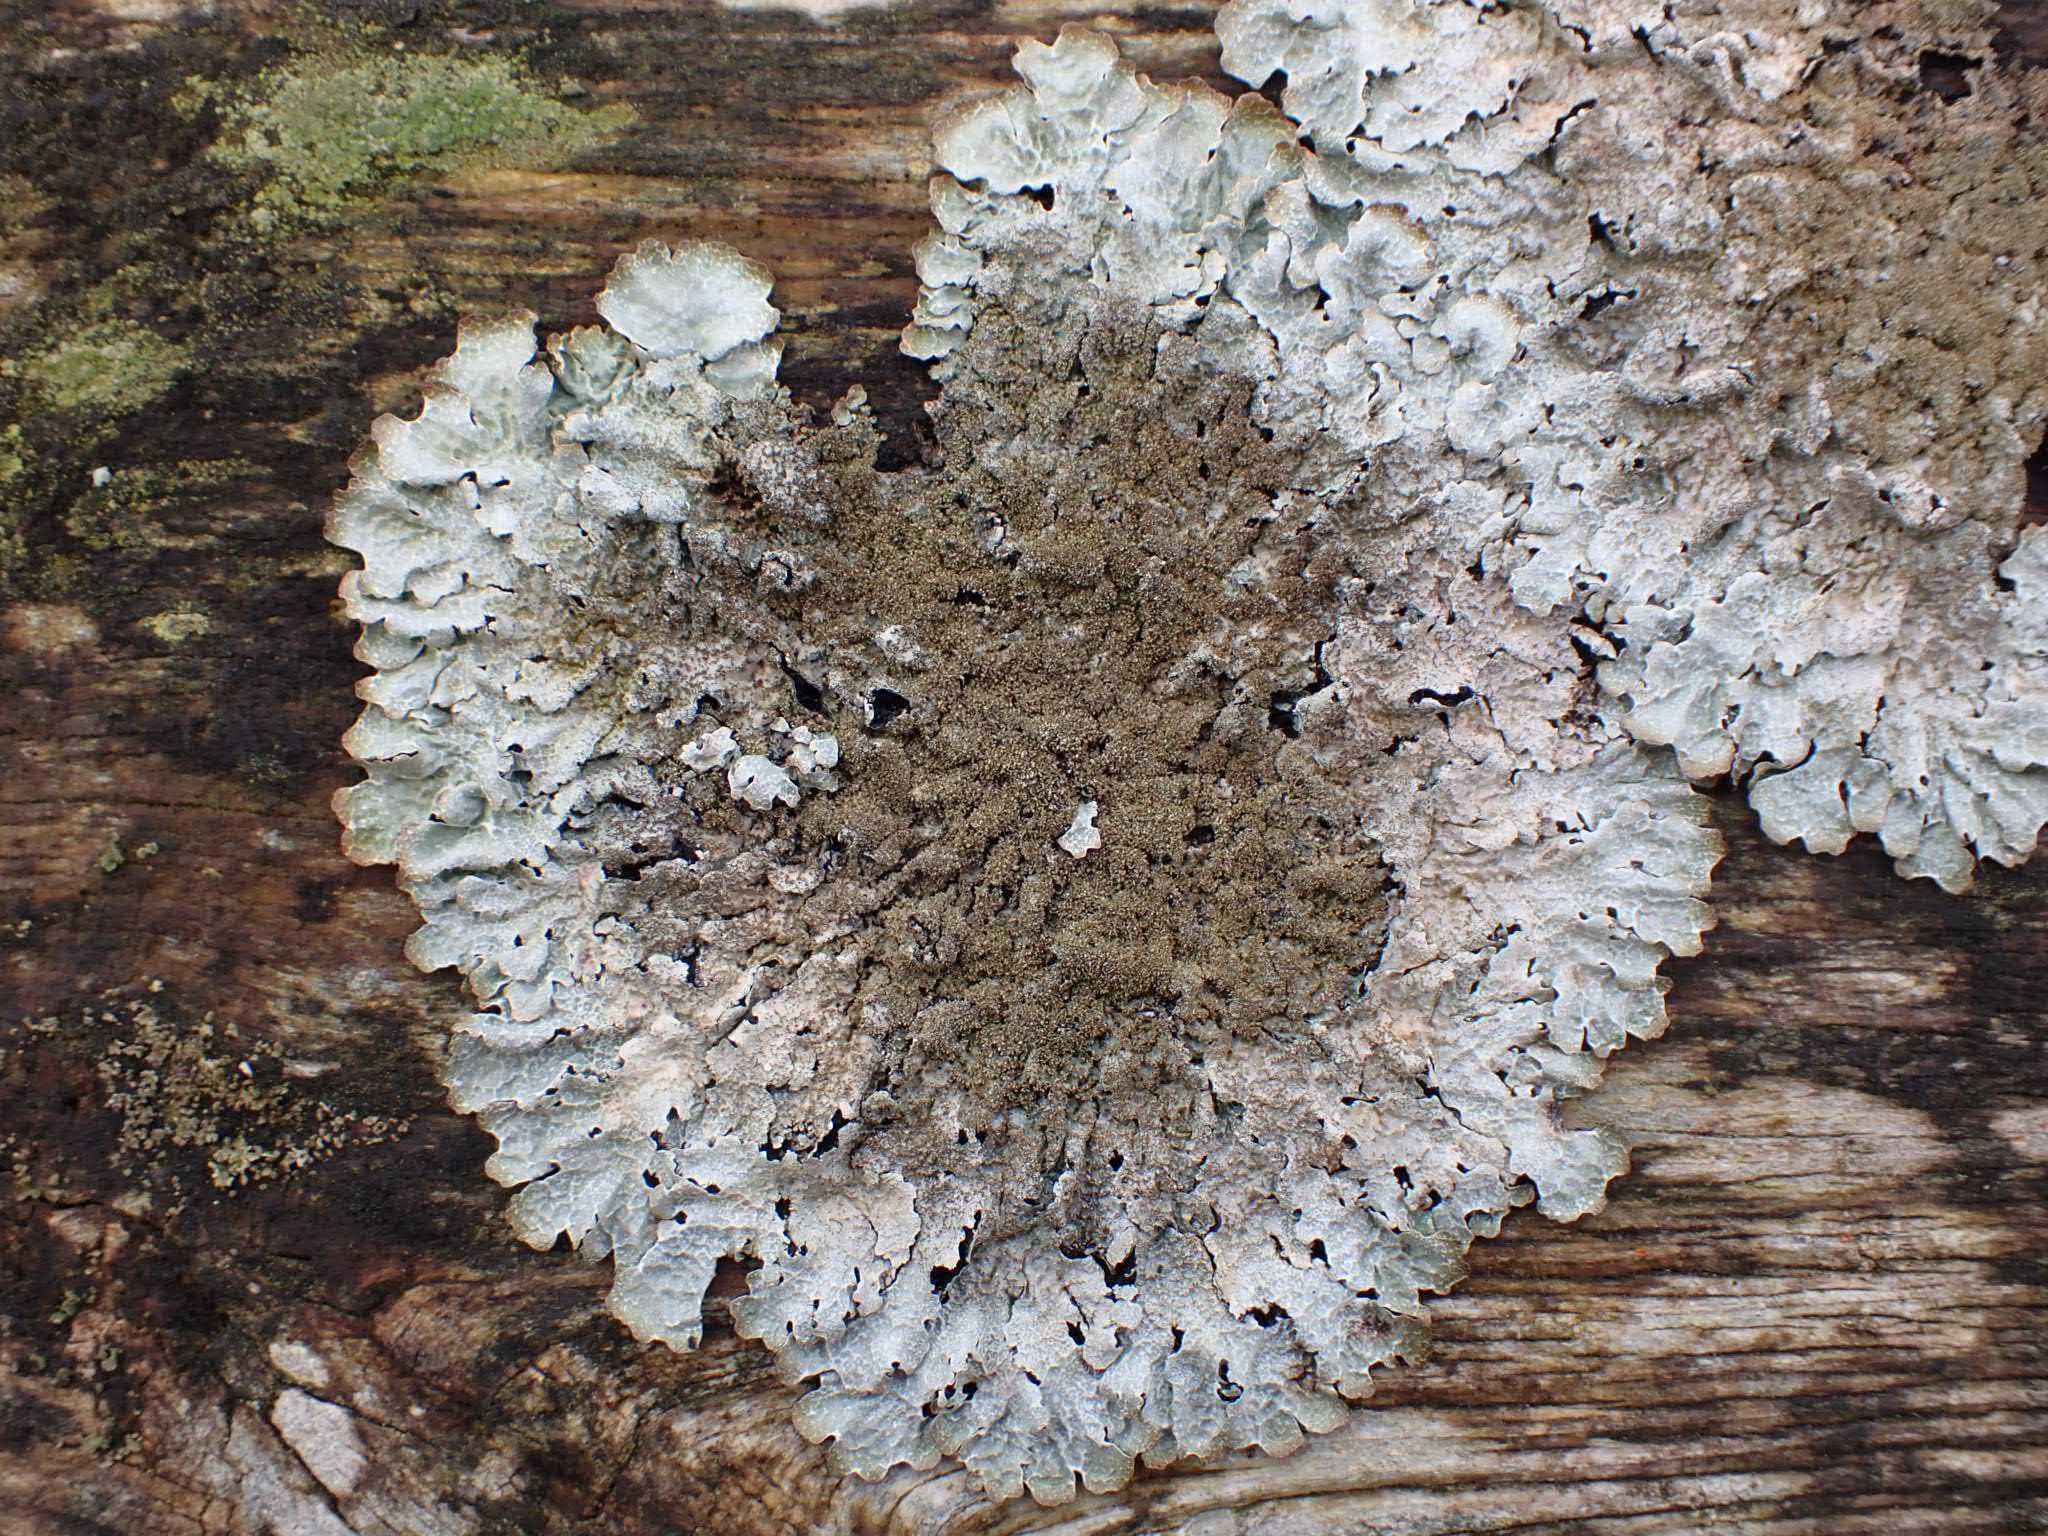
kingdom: Fungi
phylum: Ascomycota
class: Lecanoromycetes
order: Lecanorales
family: Parmeliaceae
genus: Parmelia
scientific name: Parmelia saxatilis
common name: farve-skållav
